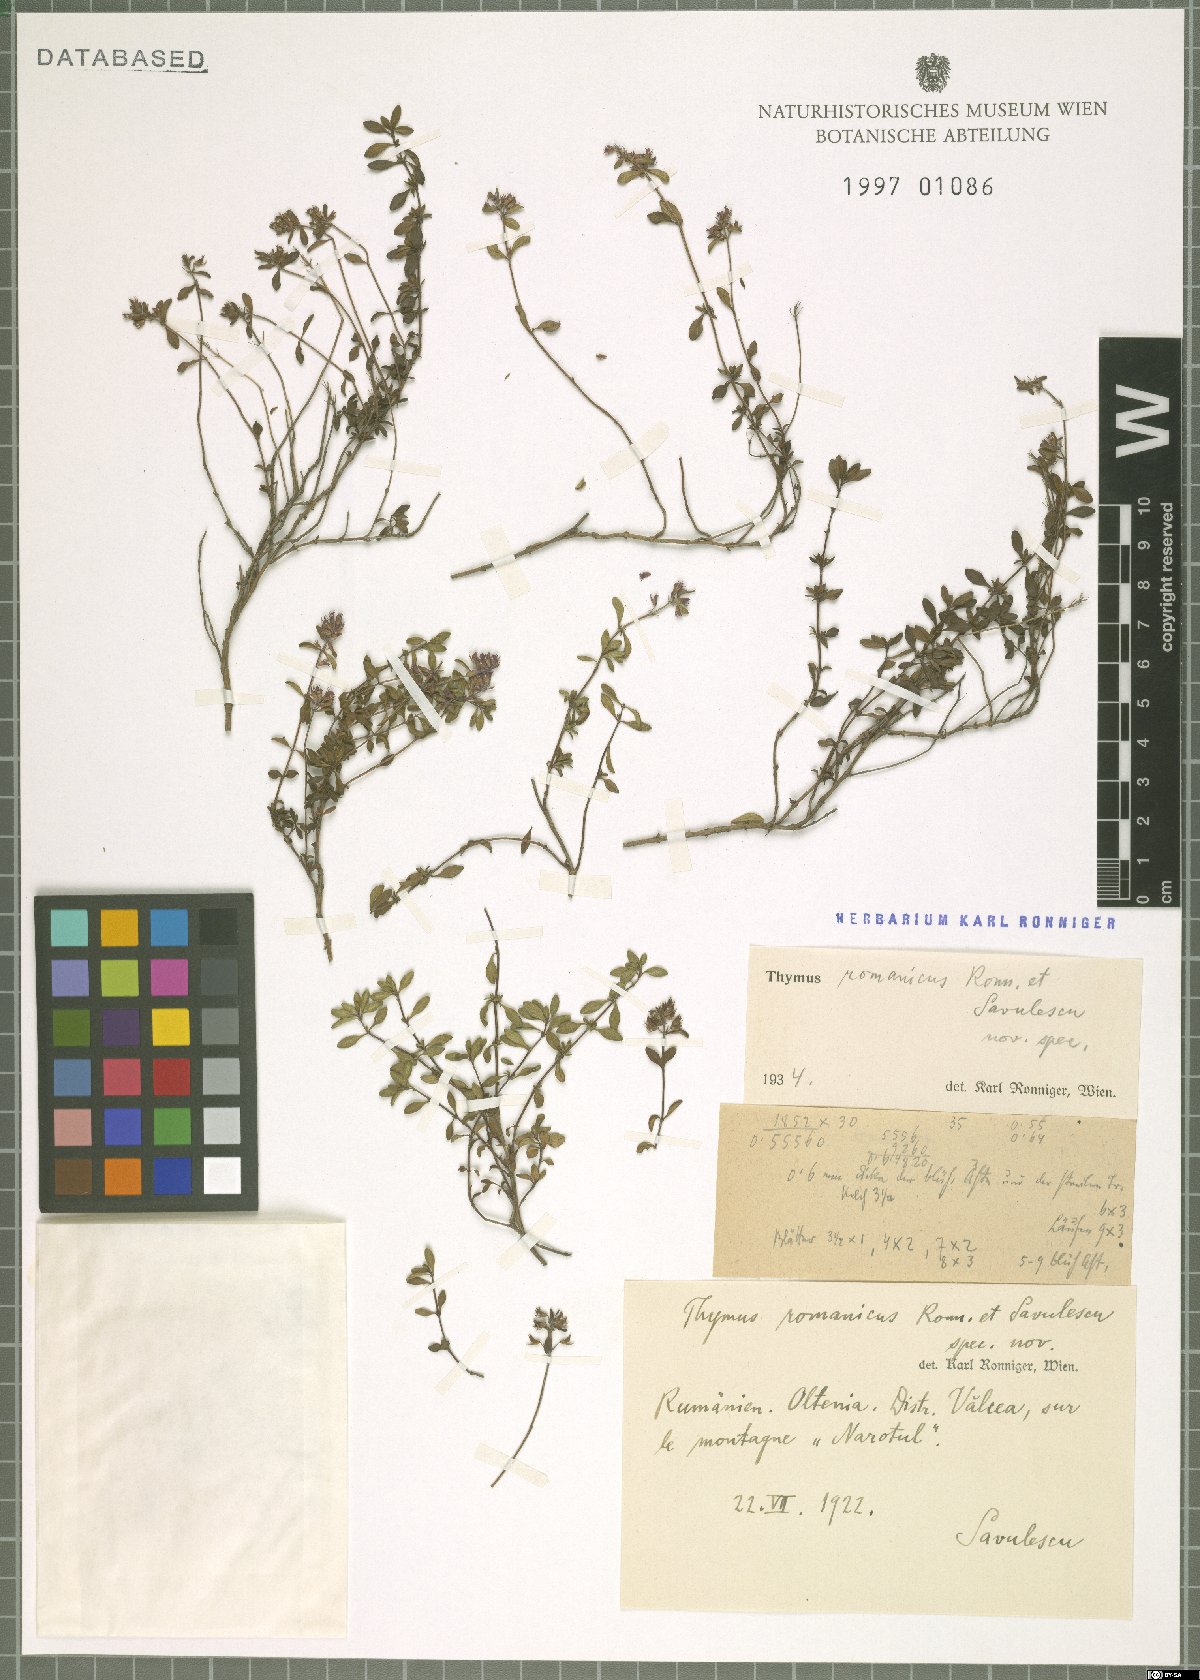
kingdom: Plantae
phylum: Tracheophyta
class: Magnoliopsida
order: Lamiales
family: Lamiaceae
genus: Thymus
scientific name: Thymus
